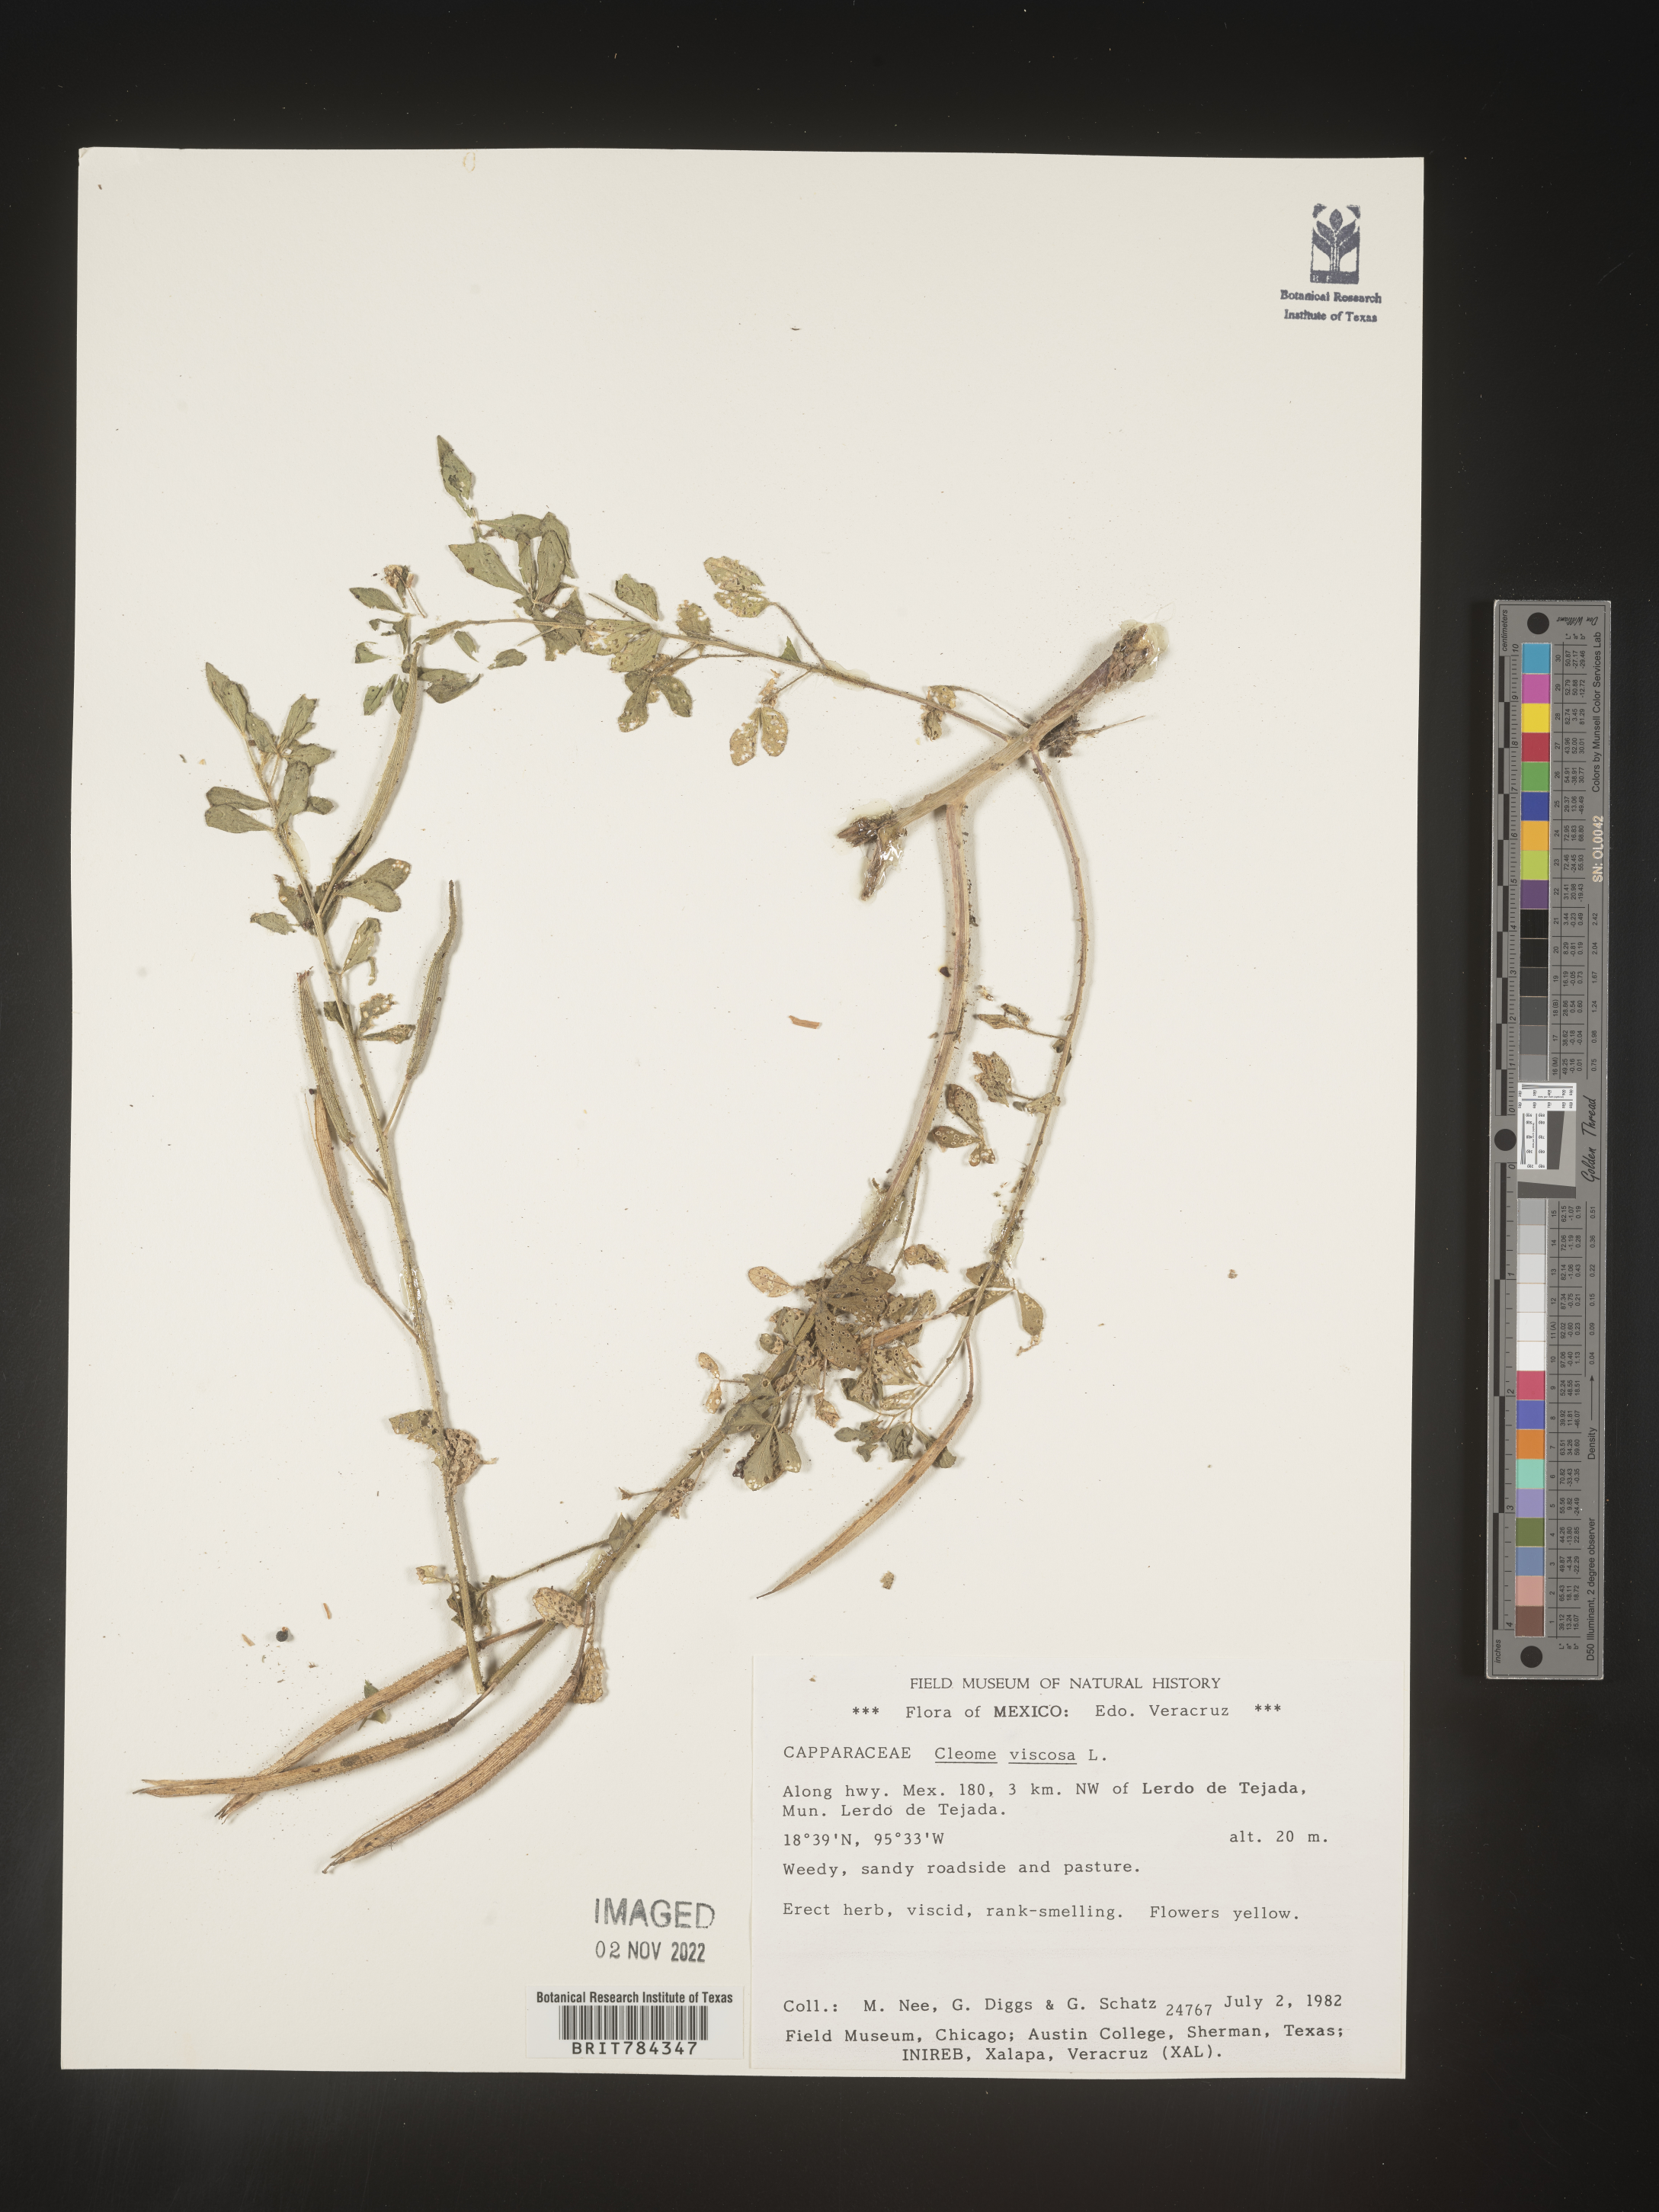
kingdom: Plantae
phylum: Tracheophyta
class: Magnoliopsida
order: Brassicales
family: Cleomaceae
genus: Cleome
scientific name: Cleome
